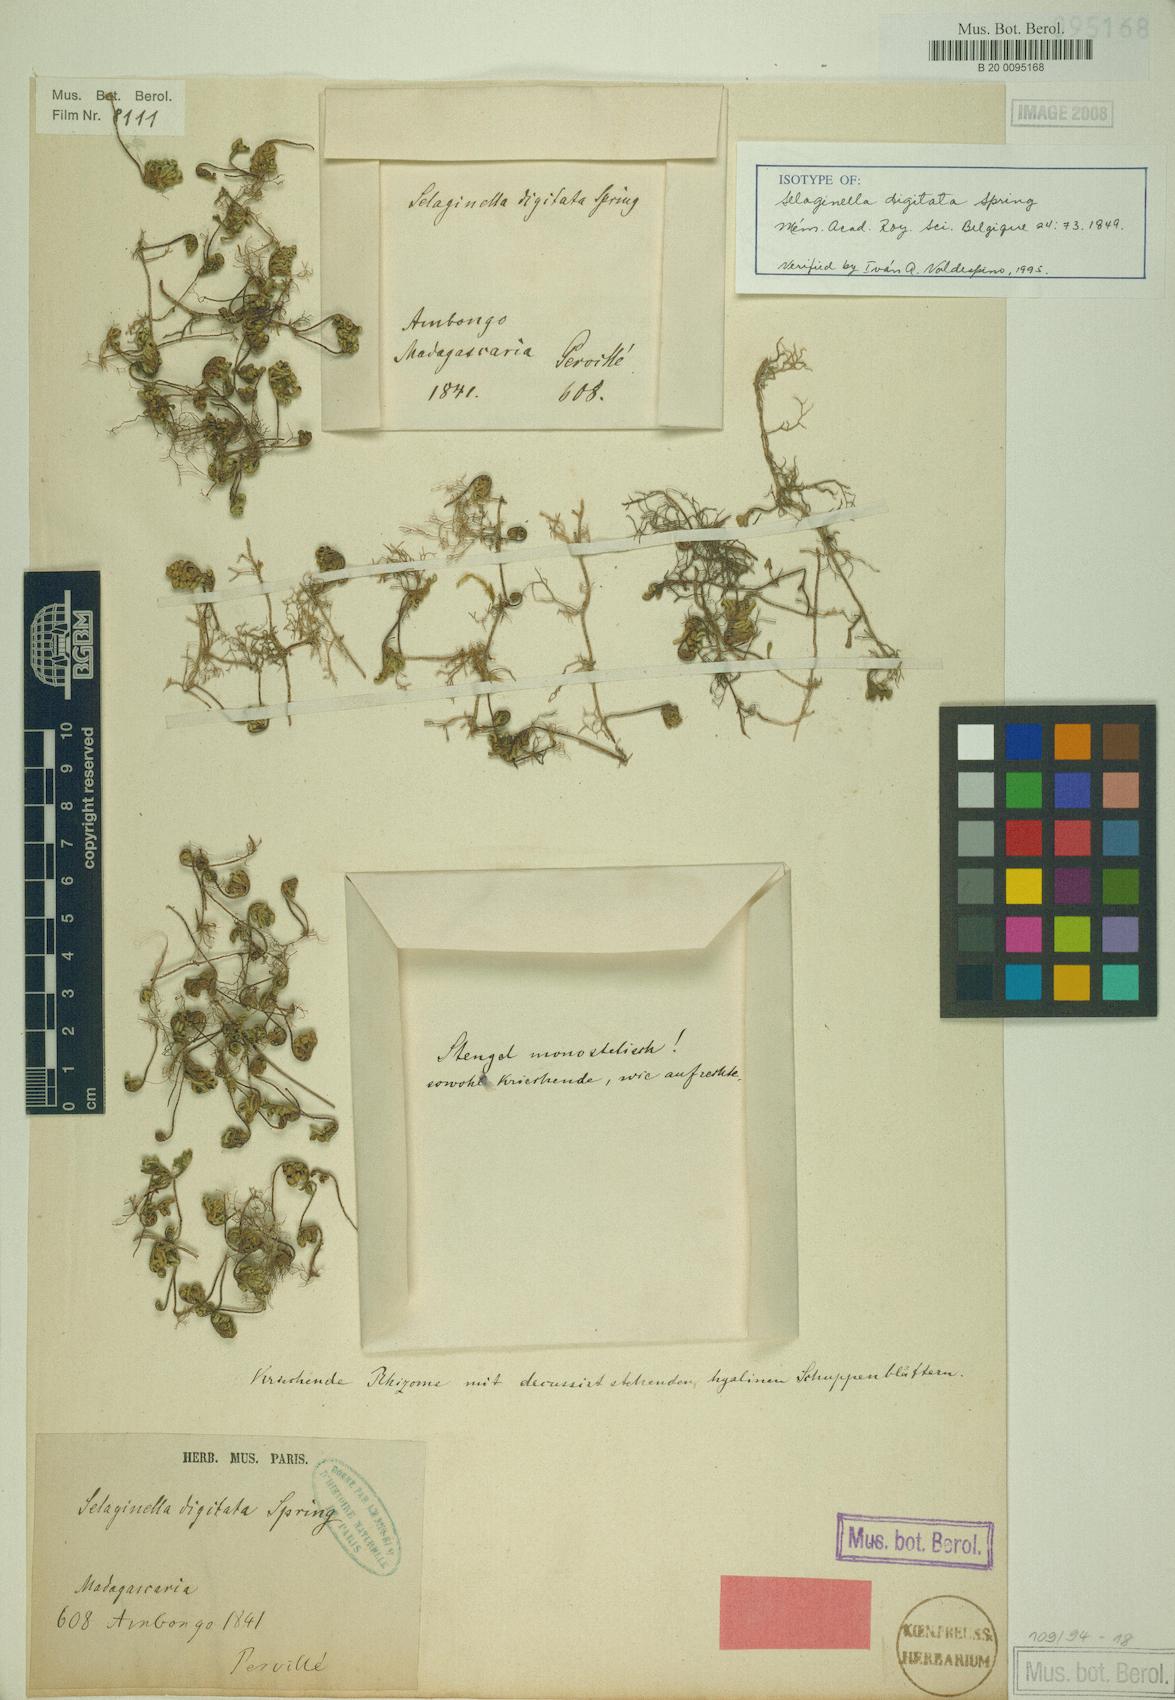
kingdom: Plantae
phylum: Tracheophyta
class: Lycopodiopsida
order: Selaginellales
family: Selaginellaceae
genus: Selaginella
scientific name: Selaginella digitata
